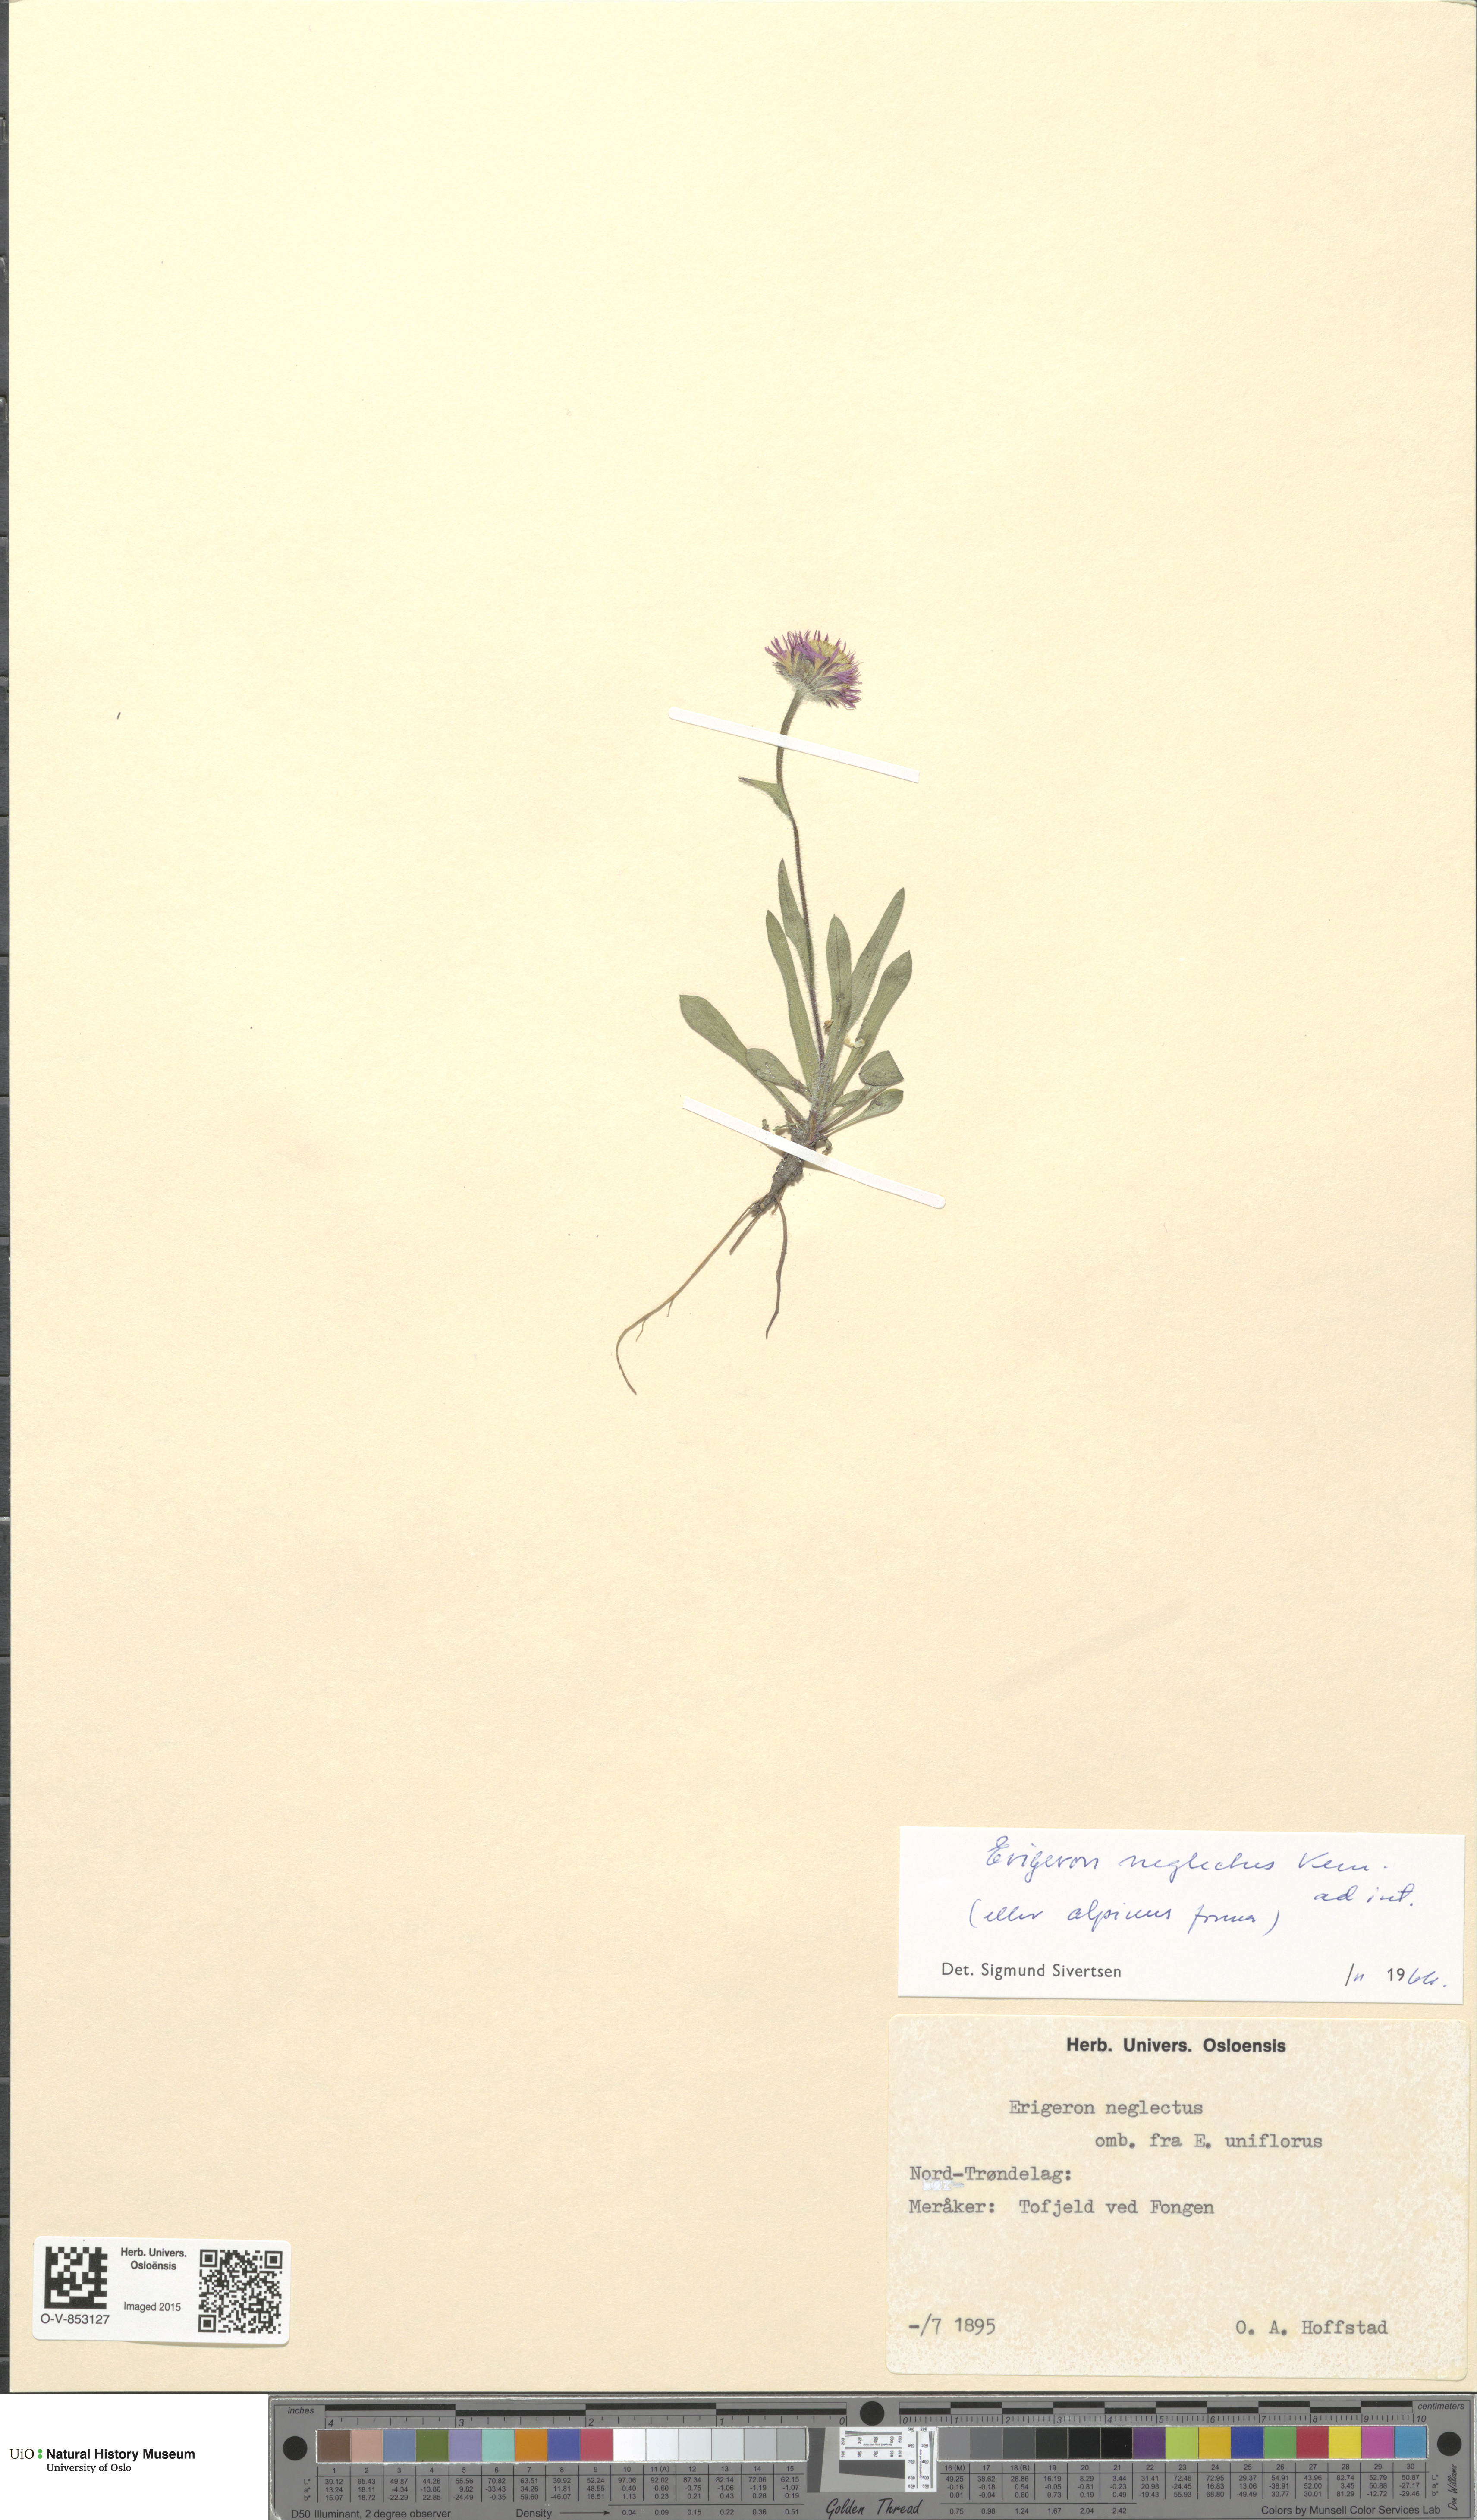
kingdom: Plantae
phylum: Tracheophyta
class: Magnoliopsida
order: Asterales
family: Asteraceae
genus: Erigeron
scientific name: Erigeron eriocephalus
